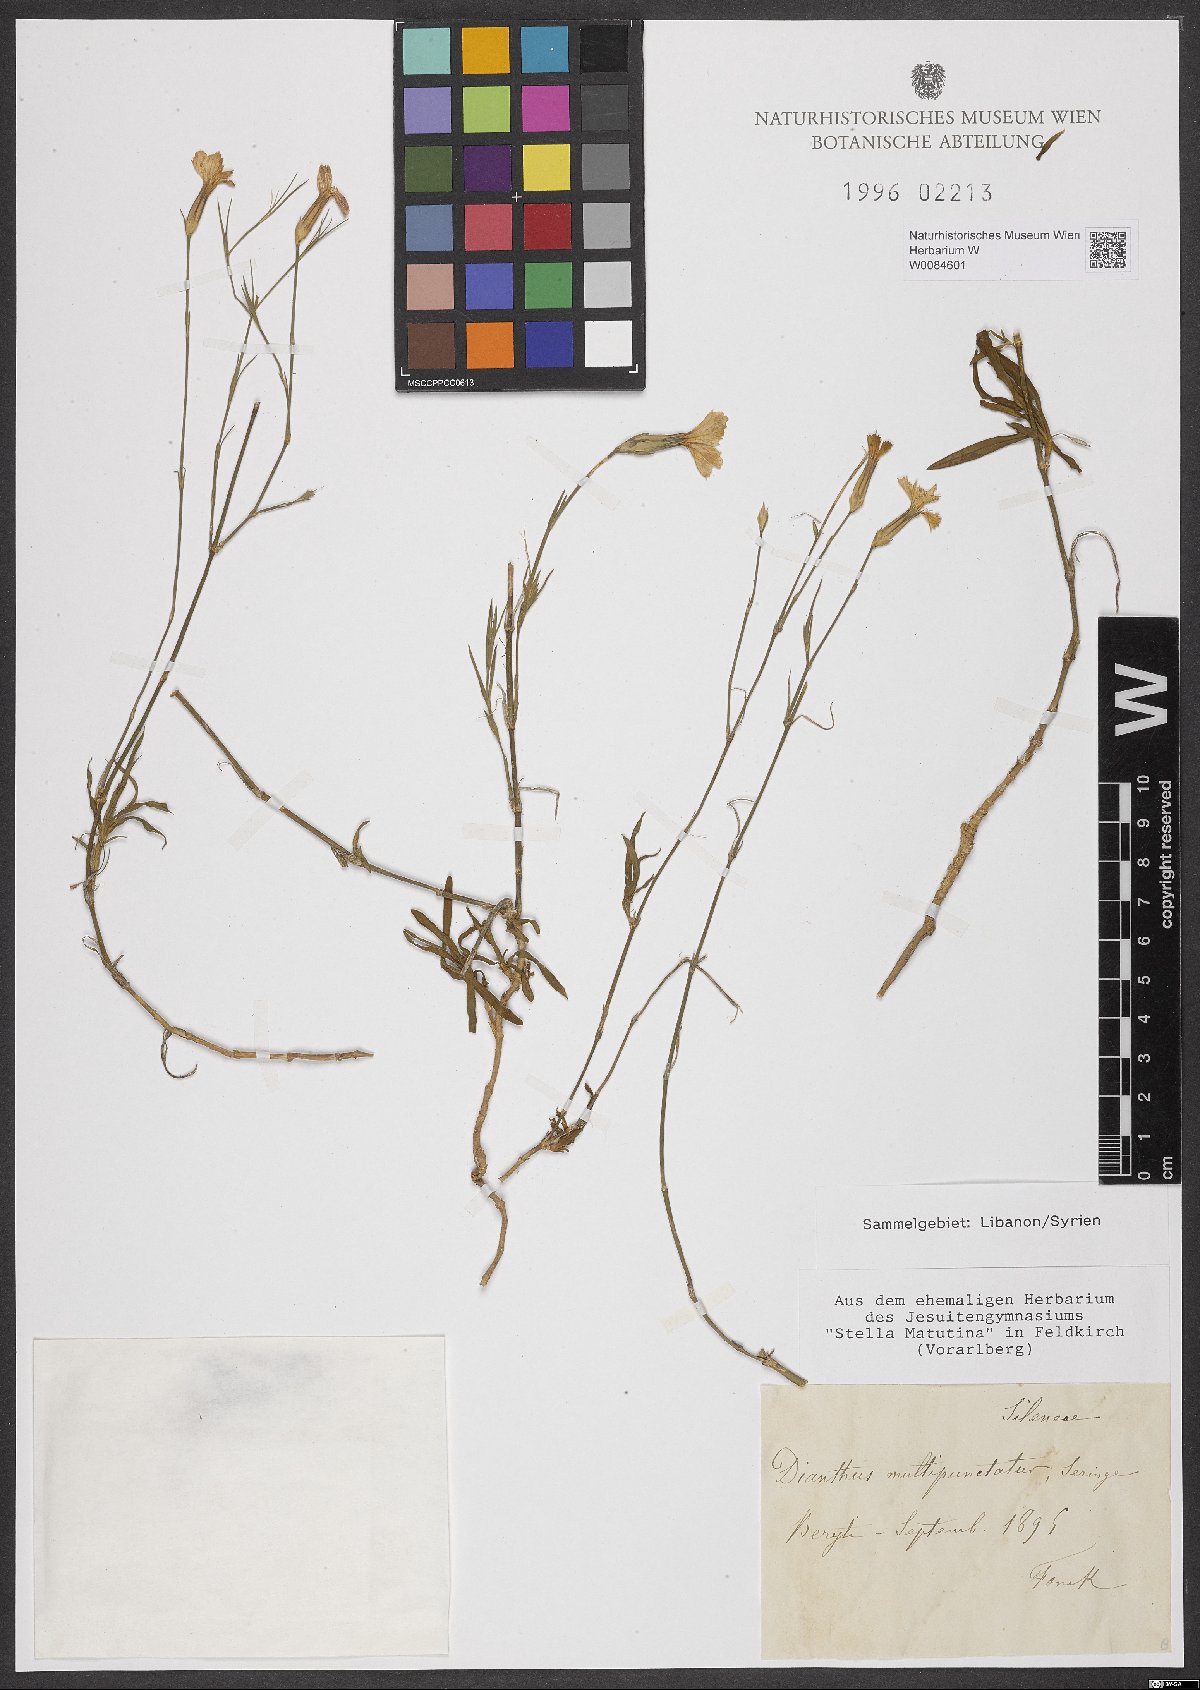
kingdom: Plantae
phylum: Tracheophyta
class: Magnoliopsida
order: Caryophyllales
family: Caryophyllaceae
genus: Dianthus
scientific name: Dianthus strictus
